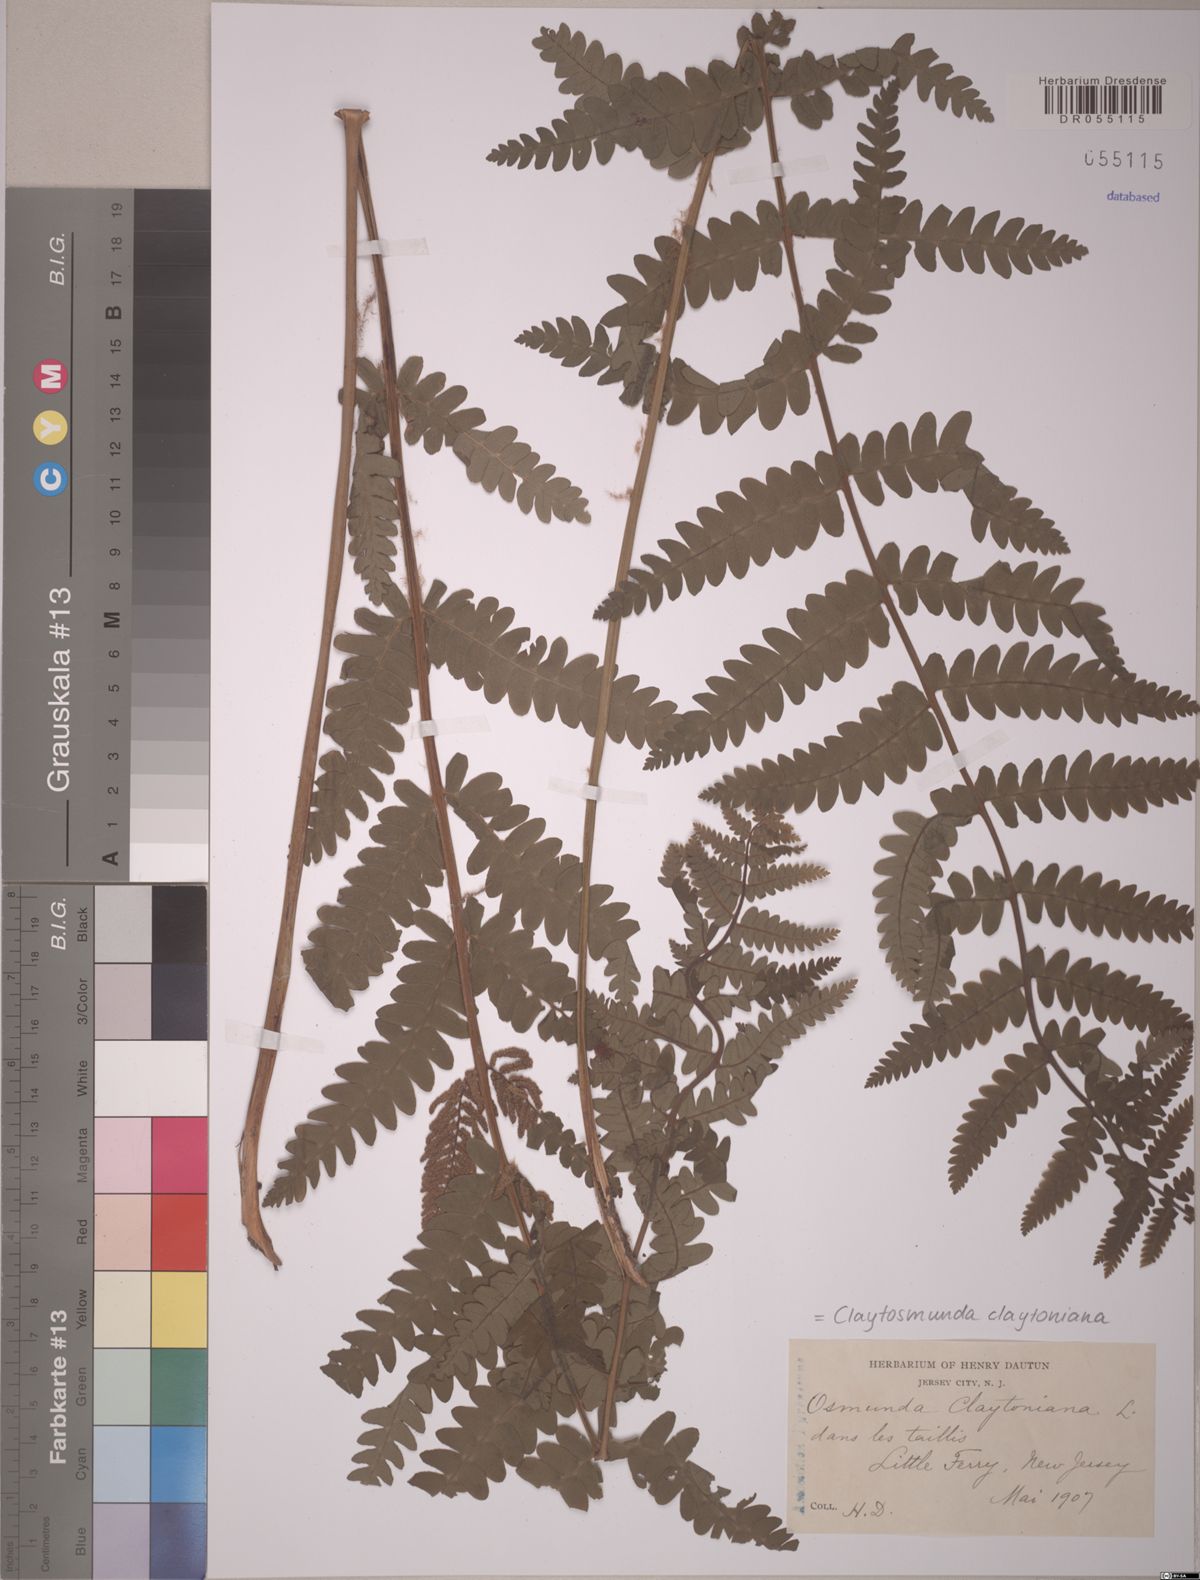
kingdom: Plantae
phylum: Tracheophyta
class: Polypodiopsida
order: Osmundales
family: Osmundaceae
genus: Claytosmunda
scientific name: Claytosmunda claytoniana
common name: Clayton's fern
